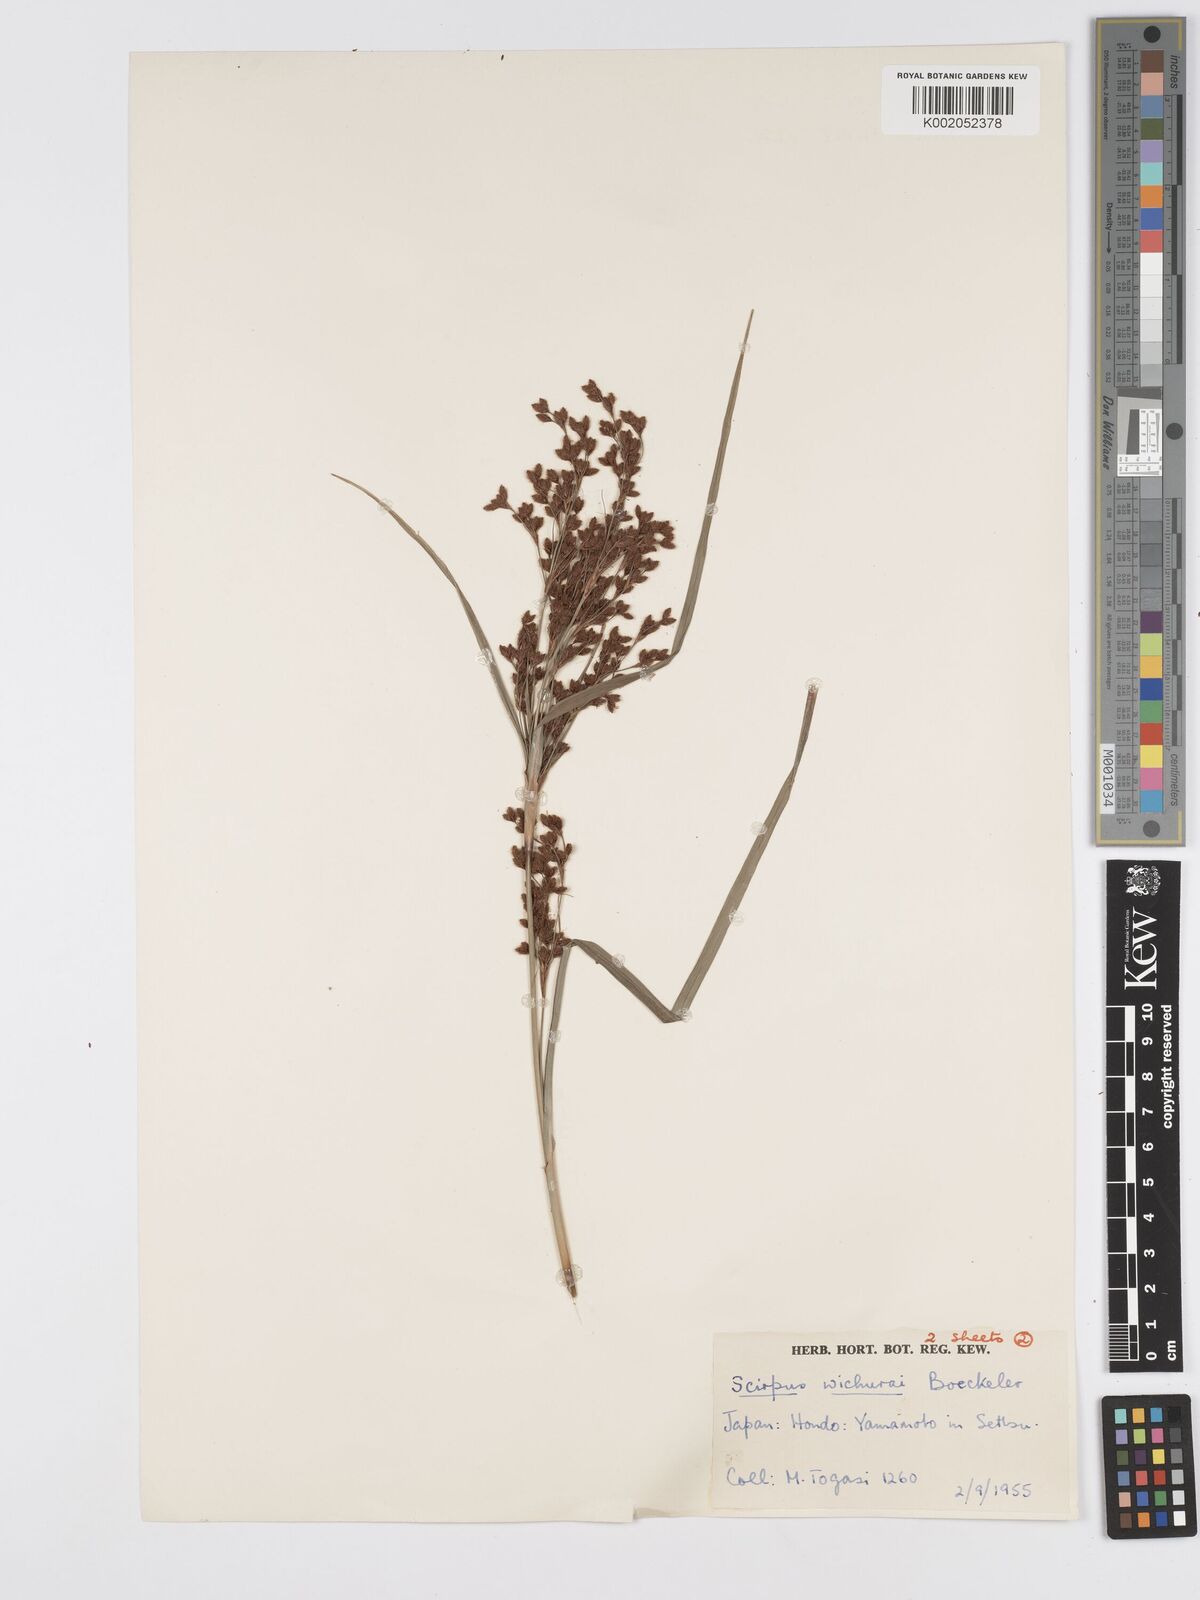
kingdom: Plantae
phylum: Tracheophyta
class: Liliopsida
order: Poales
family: Cyperaceae
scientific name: Cyperaceae
